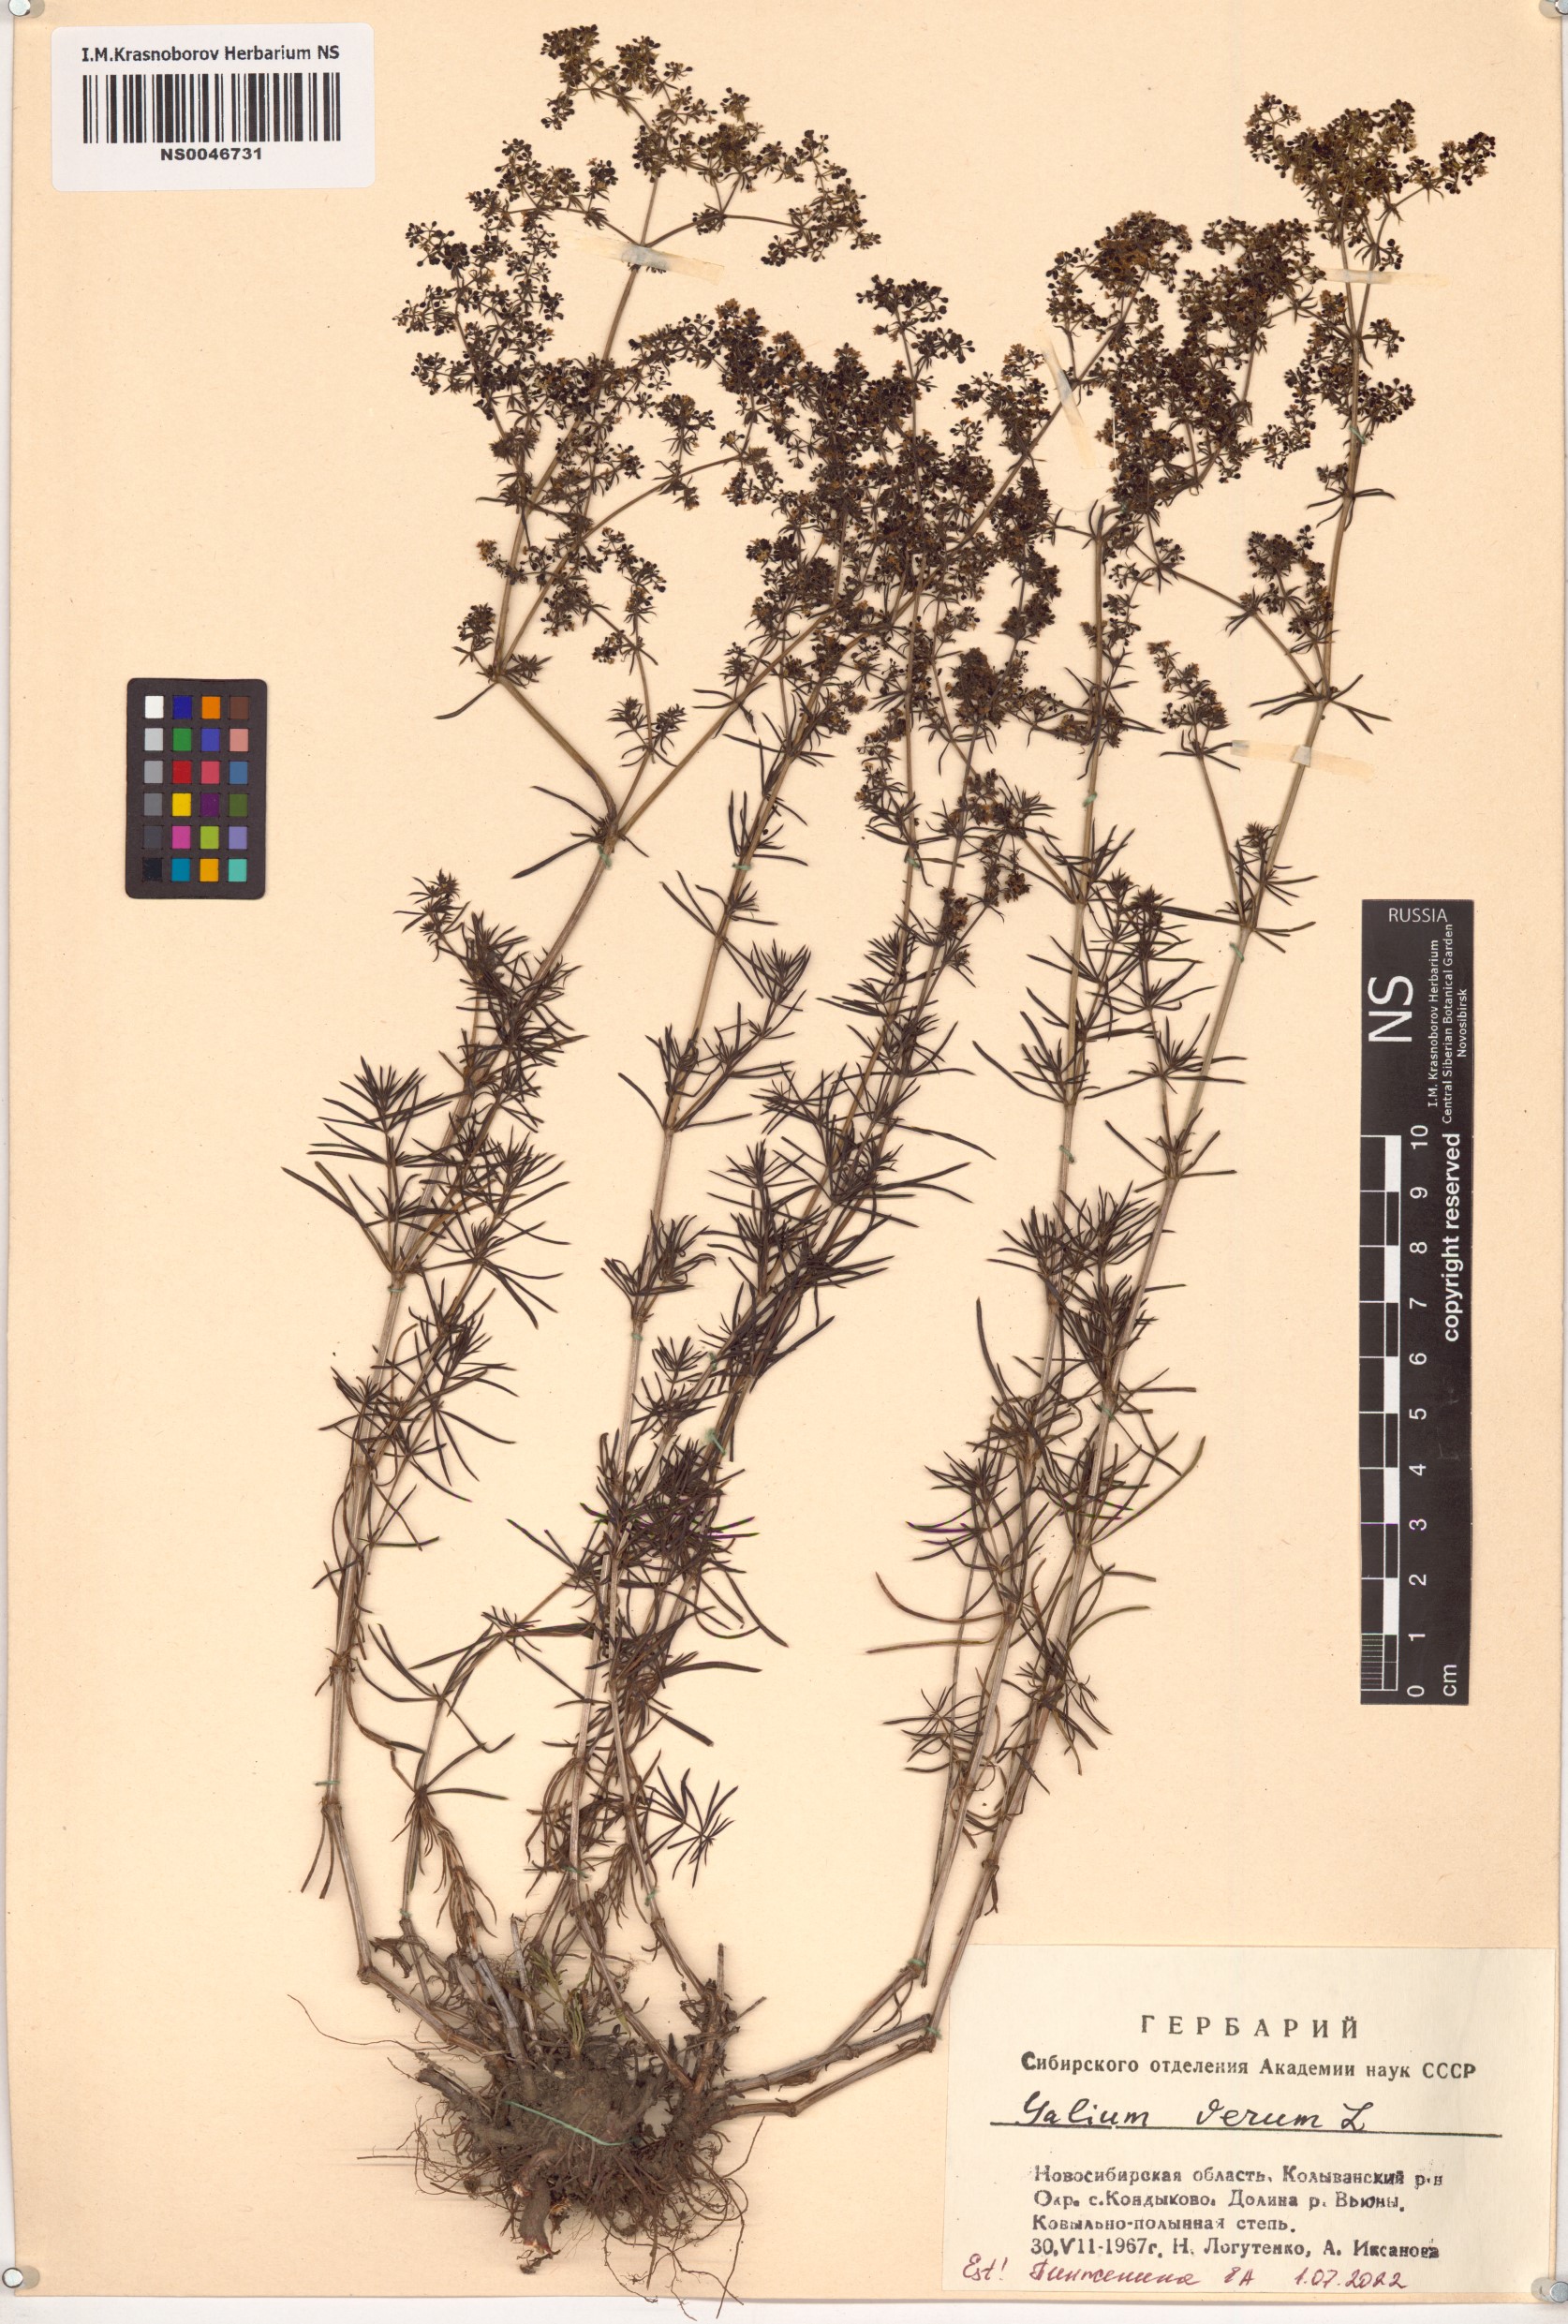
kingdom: Plantae
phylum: Tracheophyta
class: Magnoliopsida
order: Gentianales
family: Rubiaceae
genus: Galium
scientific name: Galium verum
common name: Lady's bedstraw
